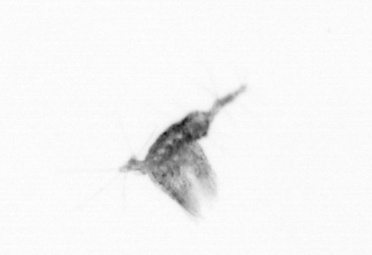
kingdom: Animalia
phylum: Arthropoda
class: Copepoda
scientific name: Copepoda
